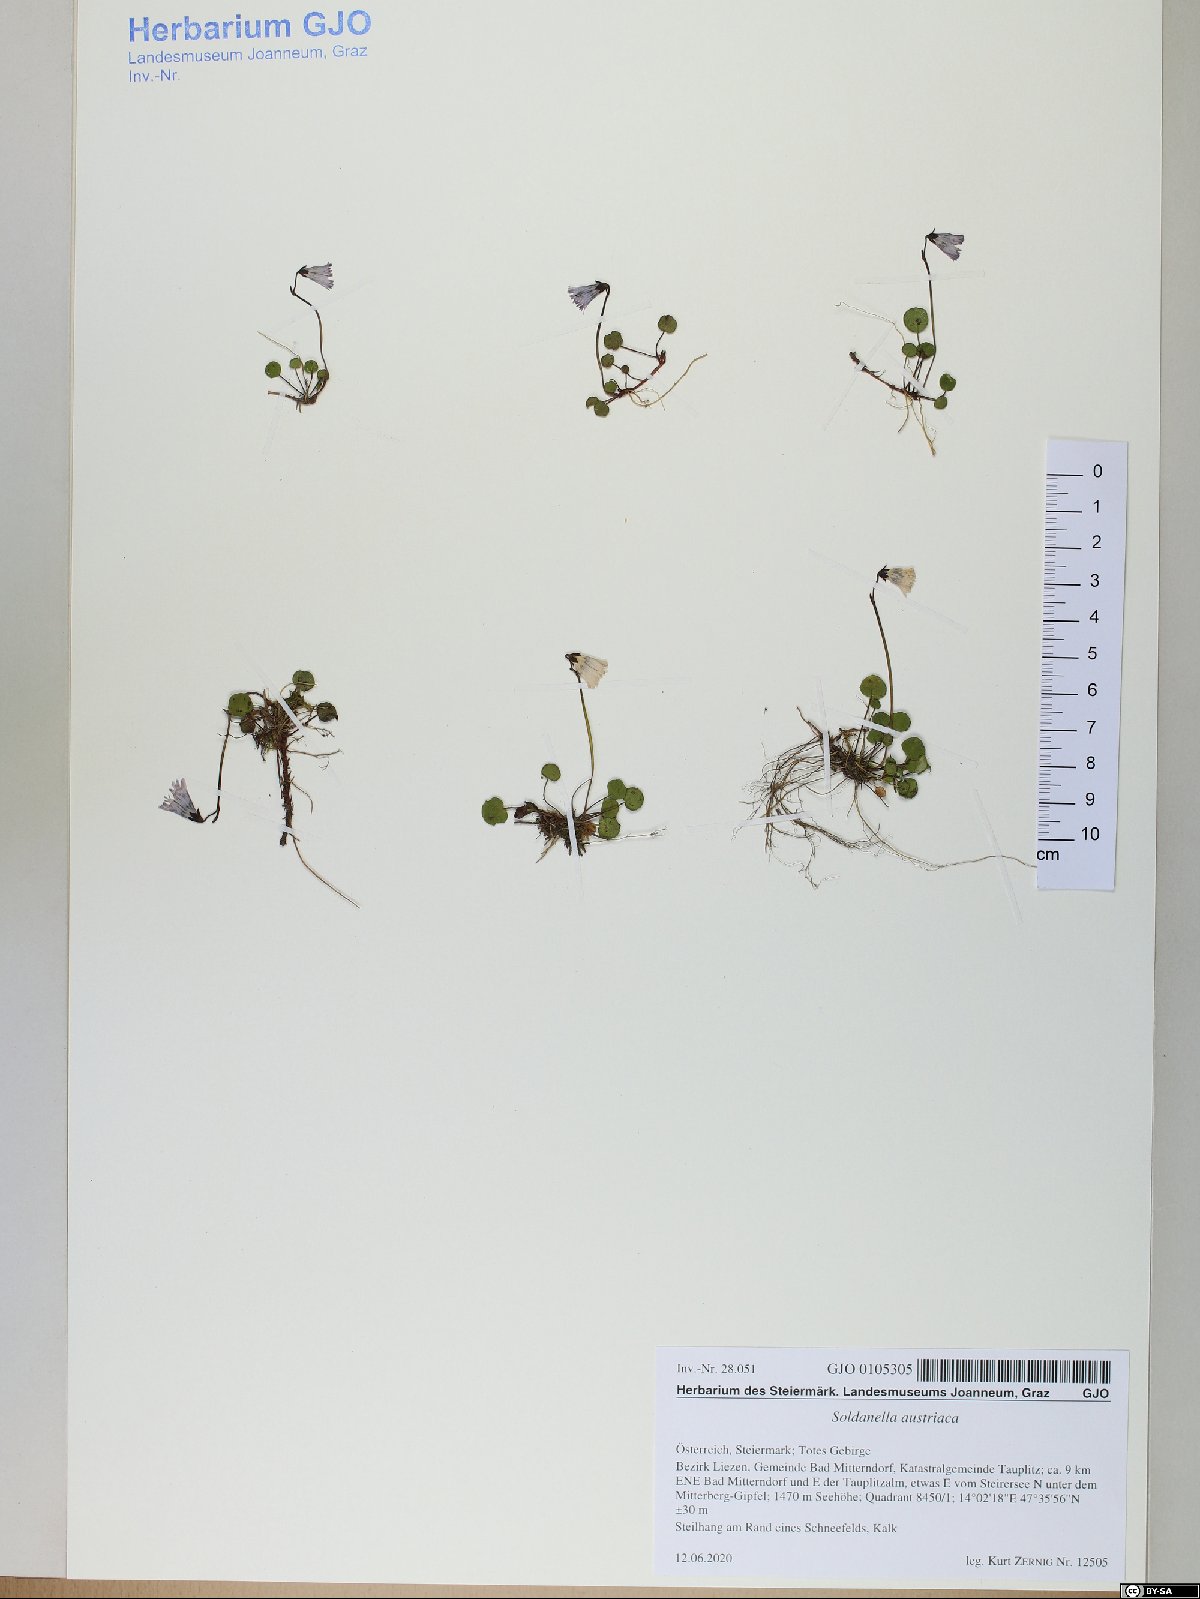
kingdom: Plantae
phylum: Tracheophyta
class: Magnoliopsida
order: Ericales
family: Primulaceae
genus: Soldanella
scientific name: Soldanella austriaca
